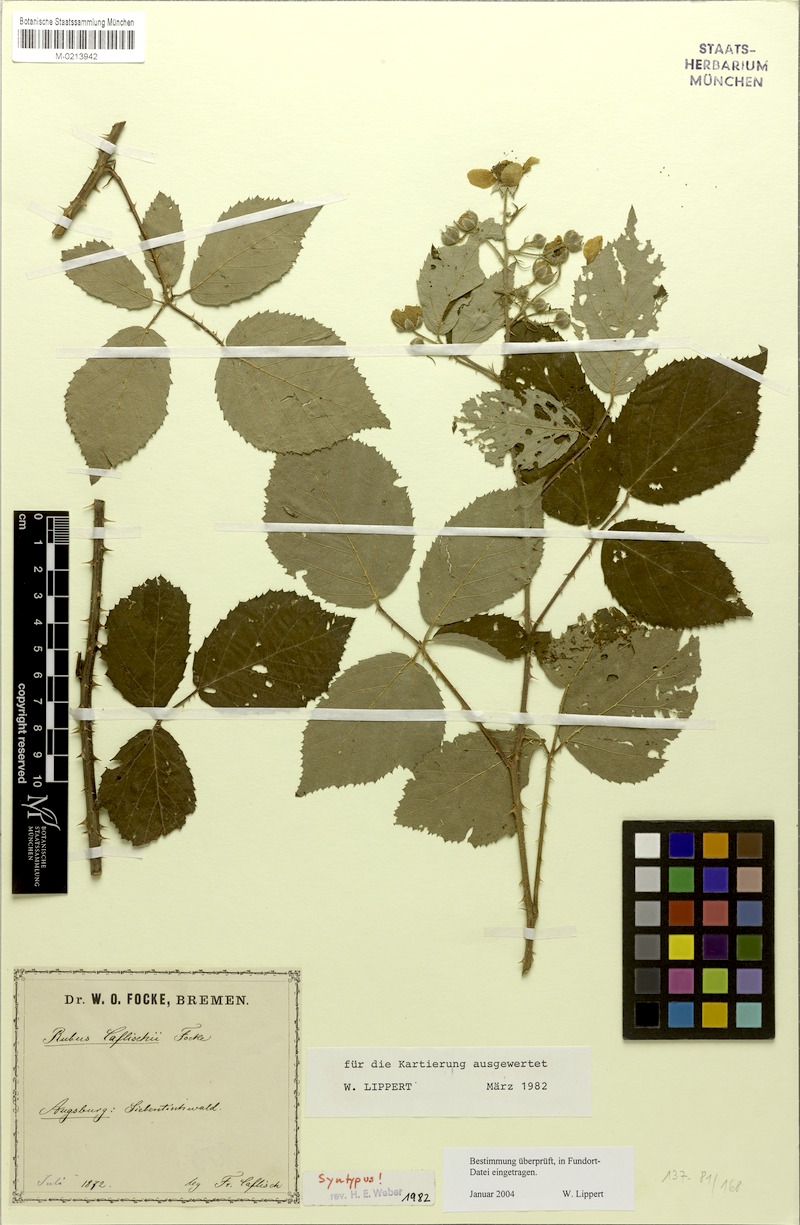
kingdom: Plantae
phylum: Tracheophyta
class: Magnoliopsida
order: Rosales
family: Rosaceae
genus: Rubus
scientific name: Rubus caflischii
